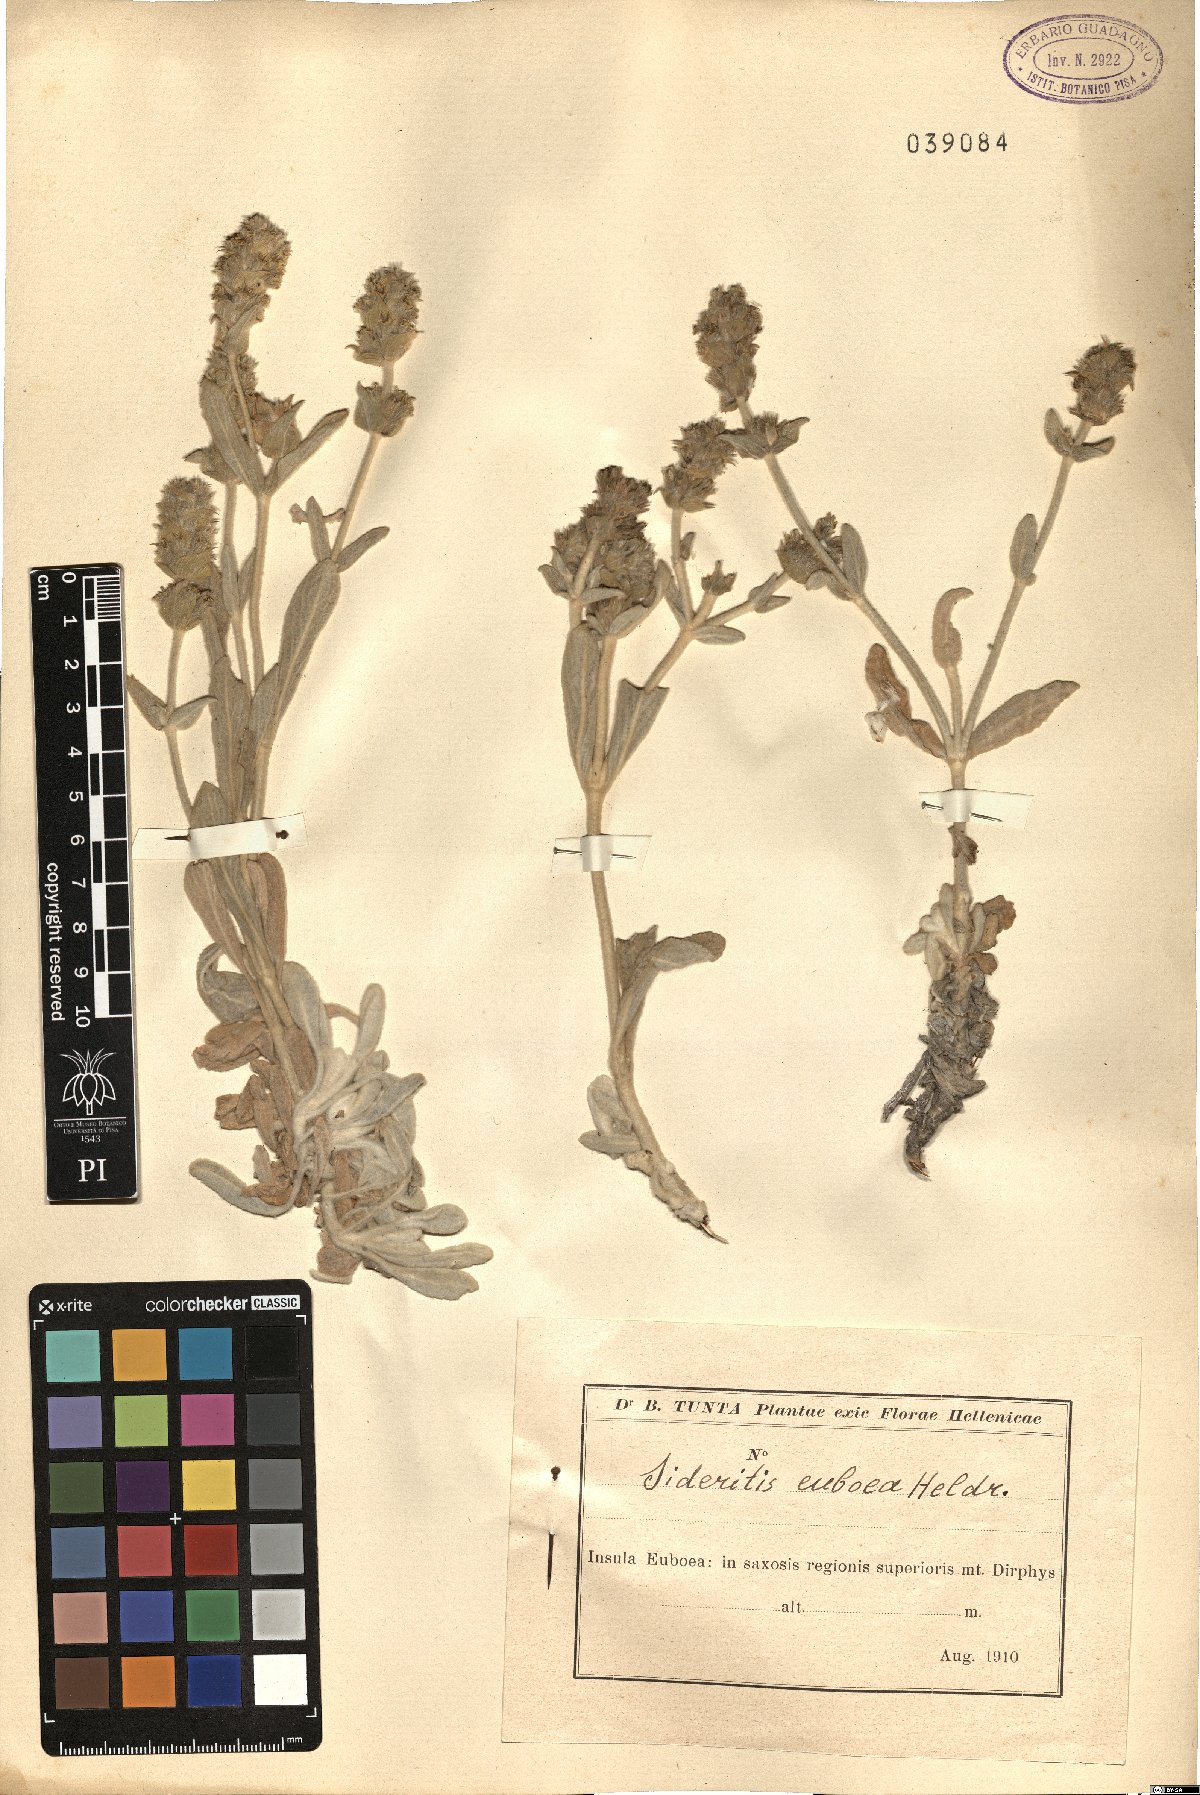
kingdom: Plantae
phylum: Tracheophyta
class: Magnoliopsida
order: Lamiales
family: Lamiaceae
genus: Sideritis
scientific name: Sideritis euboea
